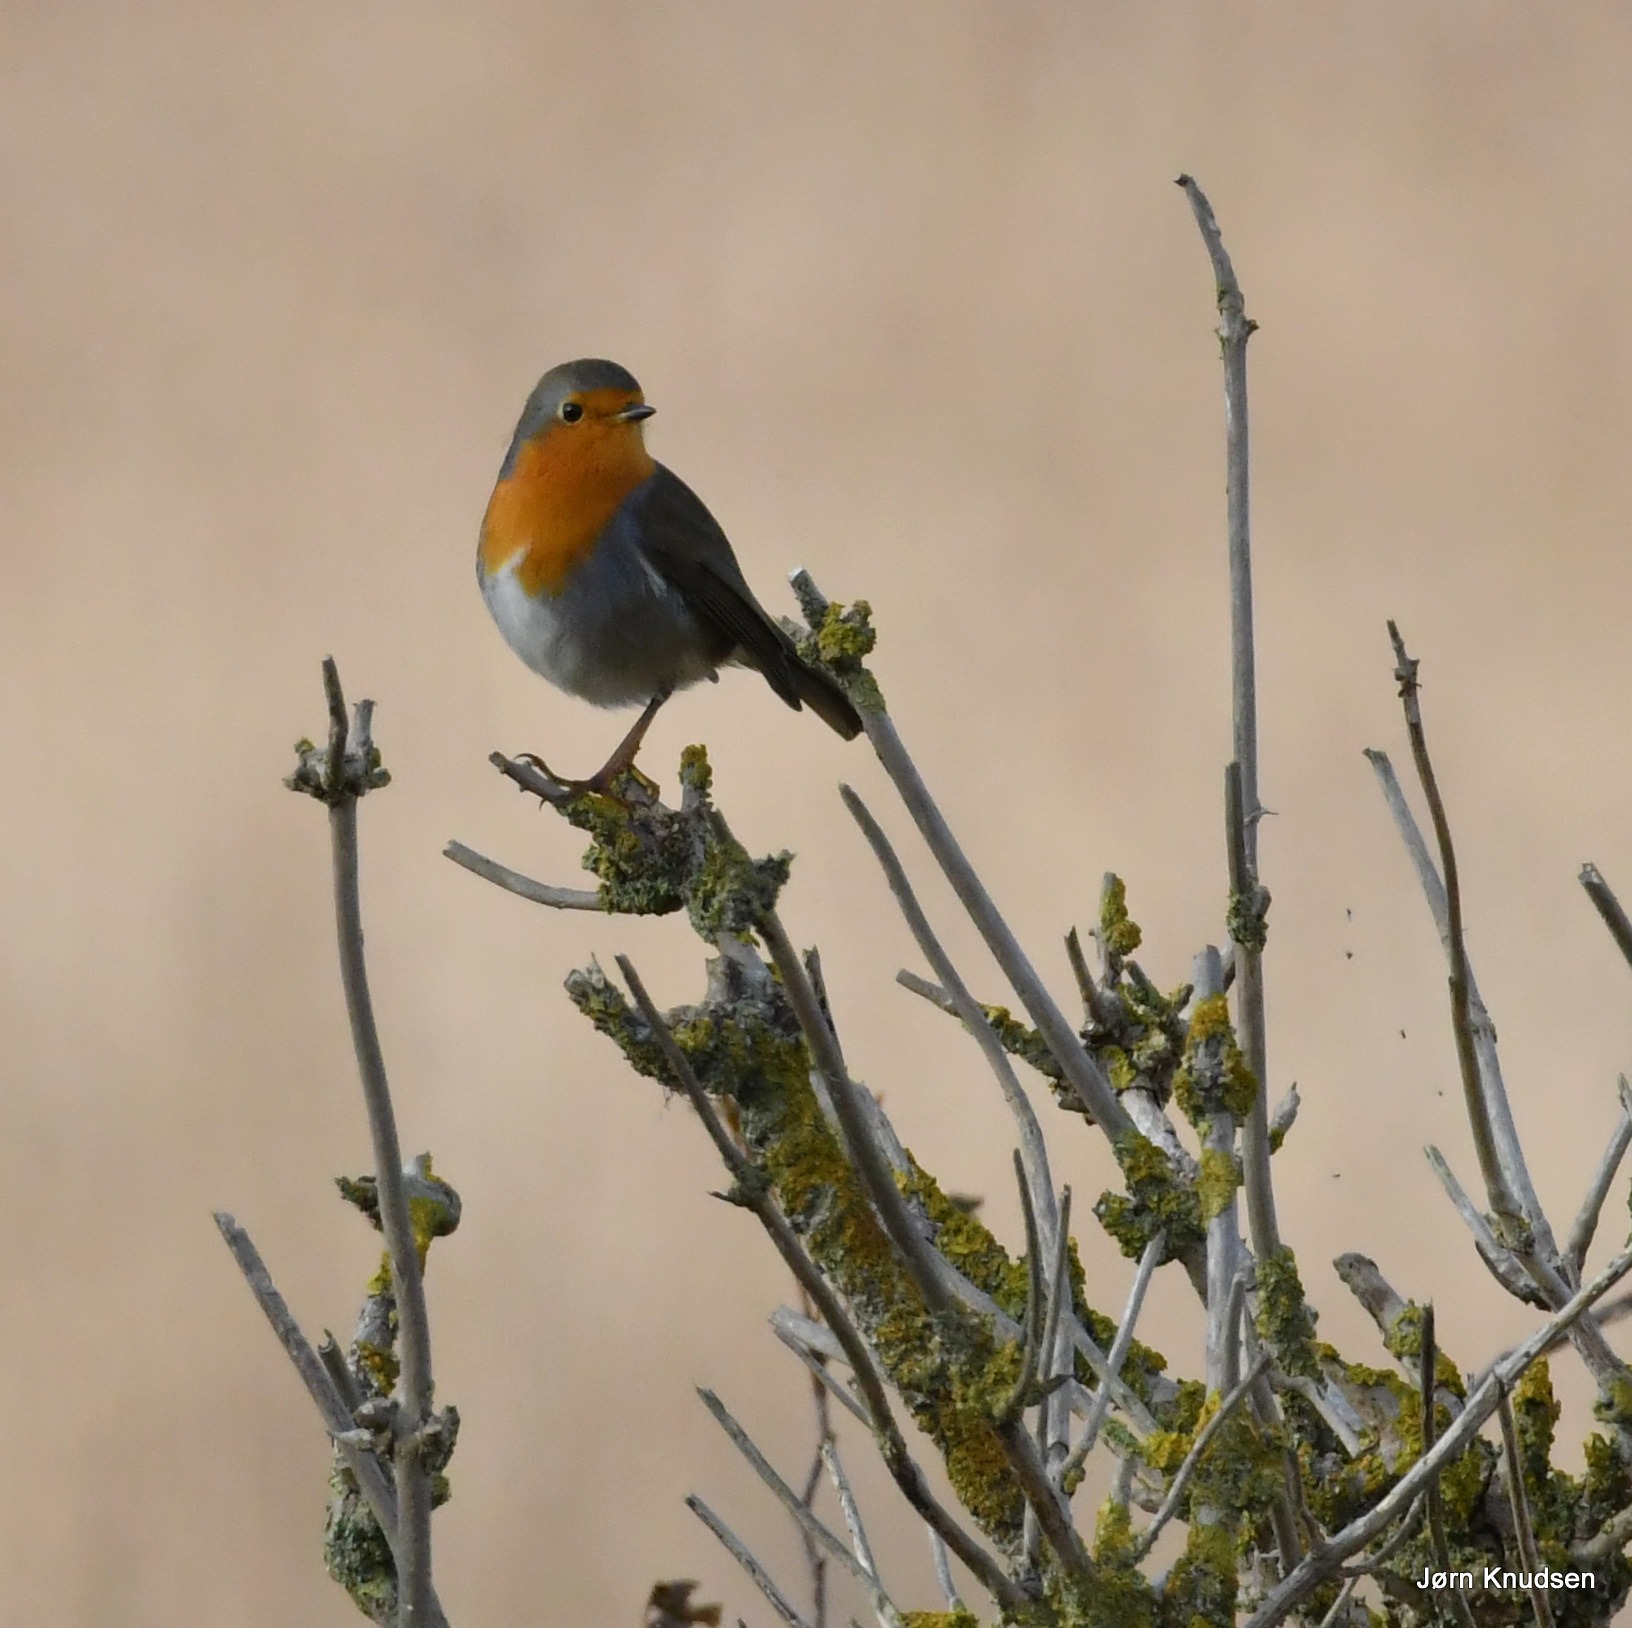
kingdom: Animalia
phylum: Chordata
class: Aves
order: Passeriformes
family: Muscicapidae
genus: Erithacus
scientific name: Erithacus rubecula
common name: Rødhals/rødkælk
